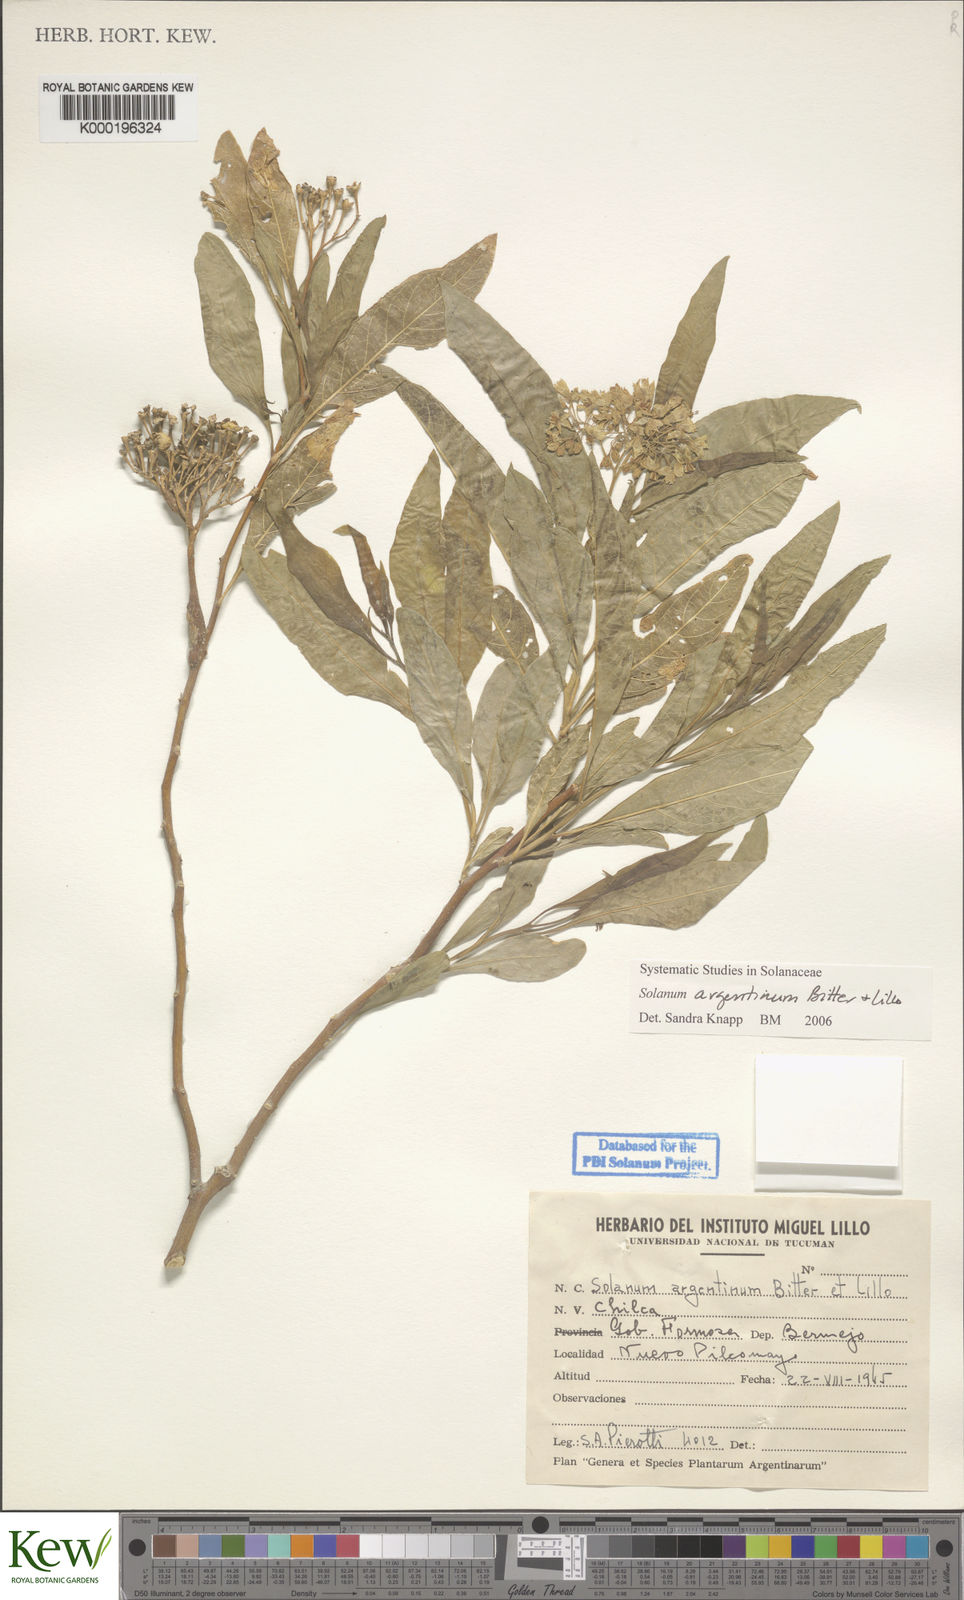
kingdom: Plantae
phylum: Tracheophyta
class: Magnoliopsida
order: Solanales
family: Solanaceae
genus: Solanum
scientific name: Solanum argentinum
